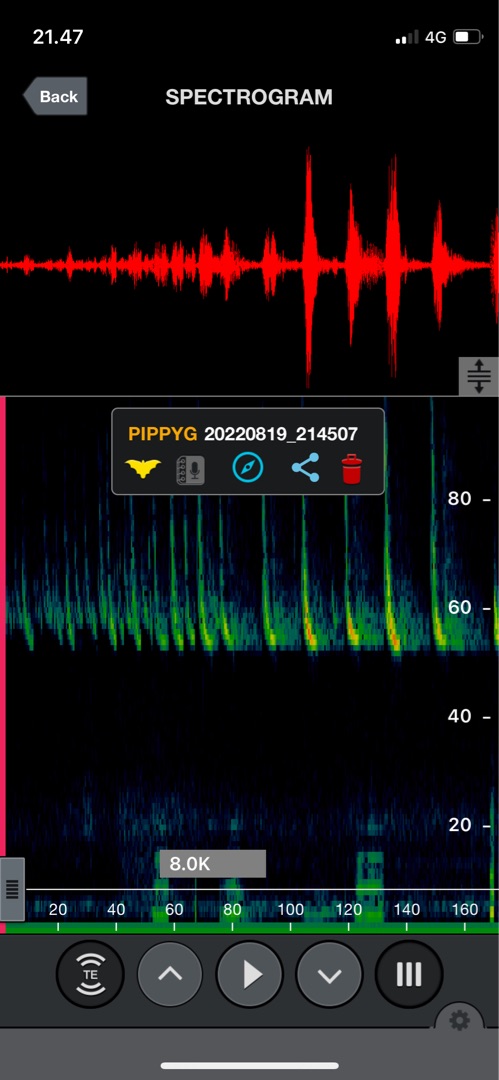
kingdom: Animalia
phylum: Chordata
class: Mammalia
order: Chiroptera
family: Vespertilionidae
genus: Pipistrellus
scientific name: Pipistrellus pygmaeus
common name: Dværgflagermus
